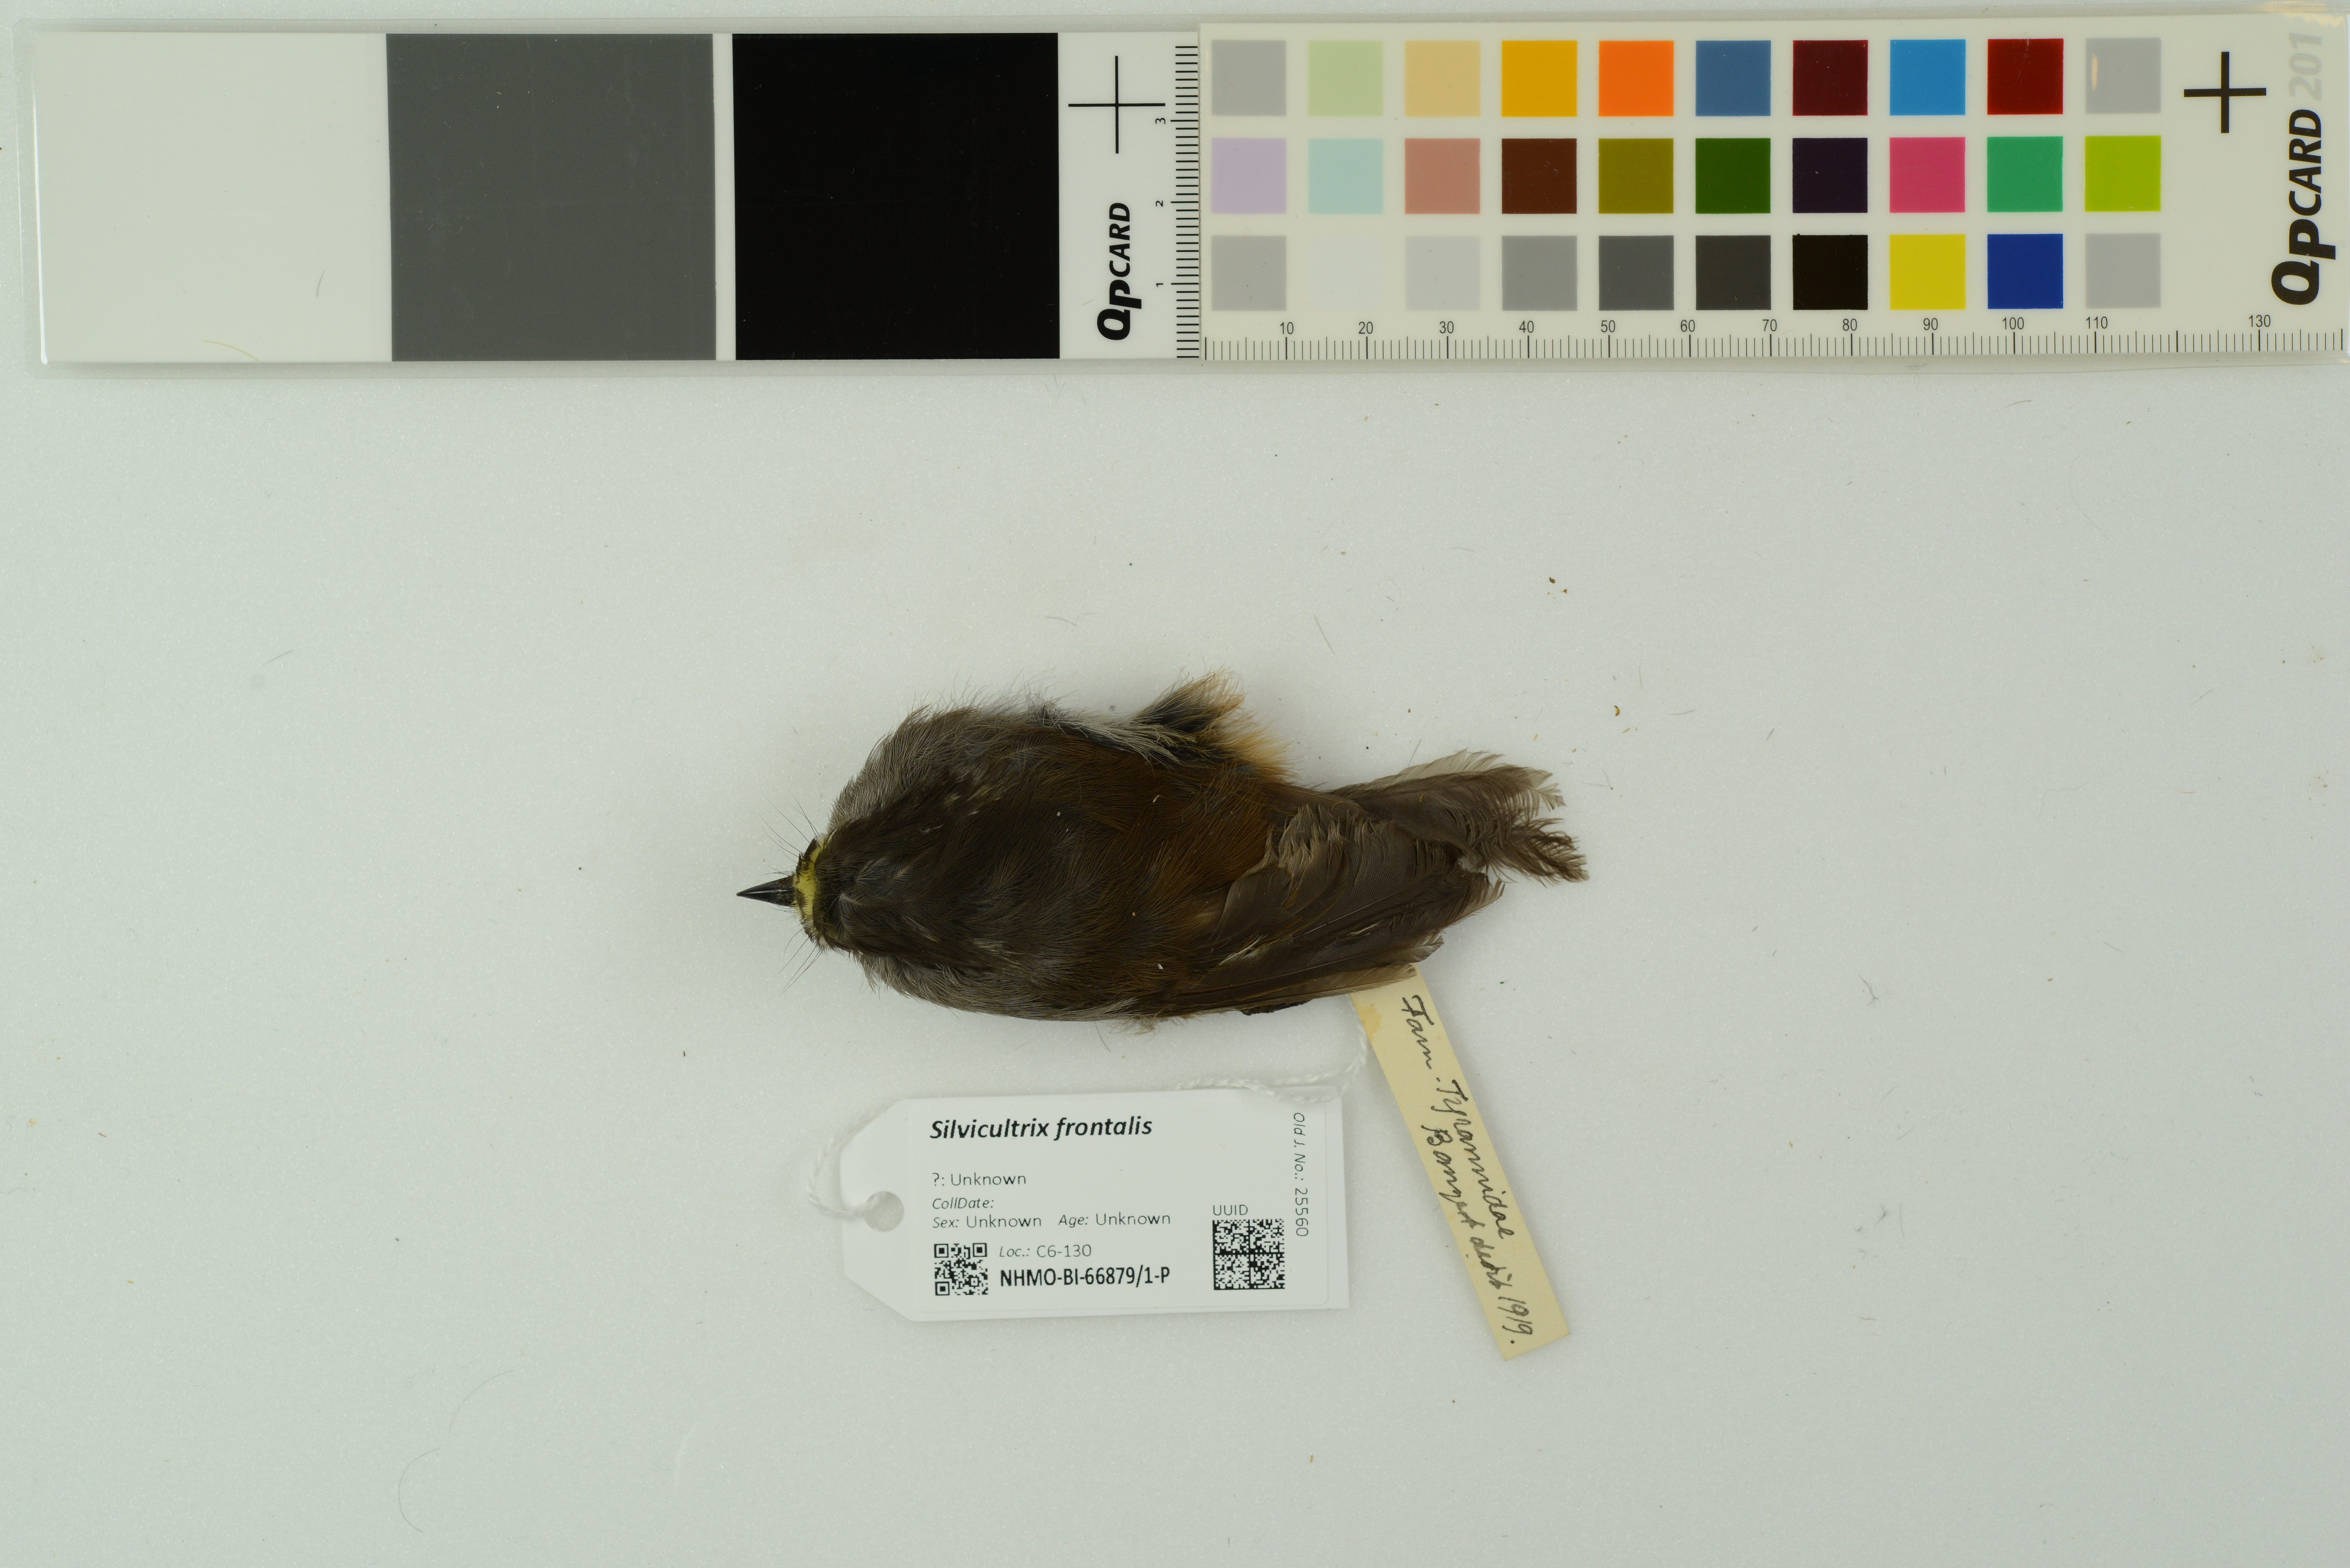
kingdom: Animalia
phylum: Chordata
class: Aves
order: Passeriformes
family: Tyrannidae
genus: Ochthoeca
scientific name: Ochthoeca frontalis
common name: Crowned chat-tyrant
